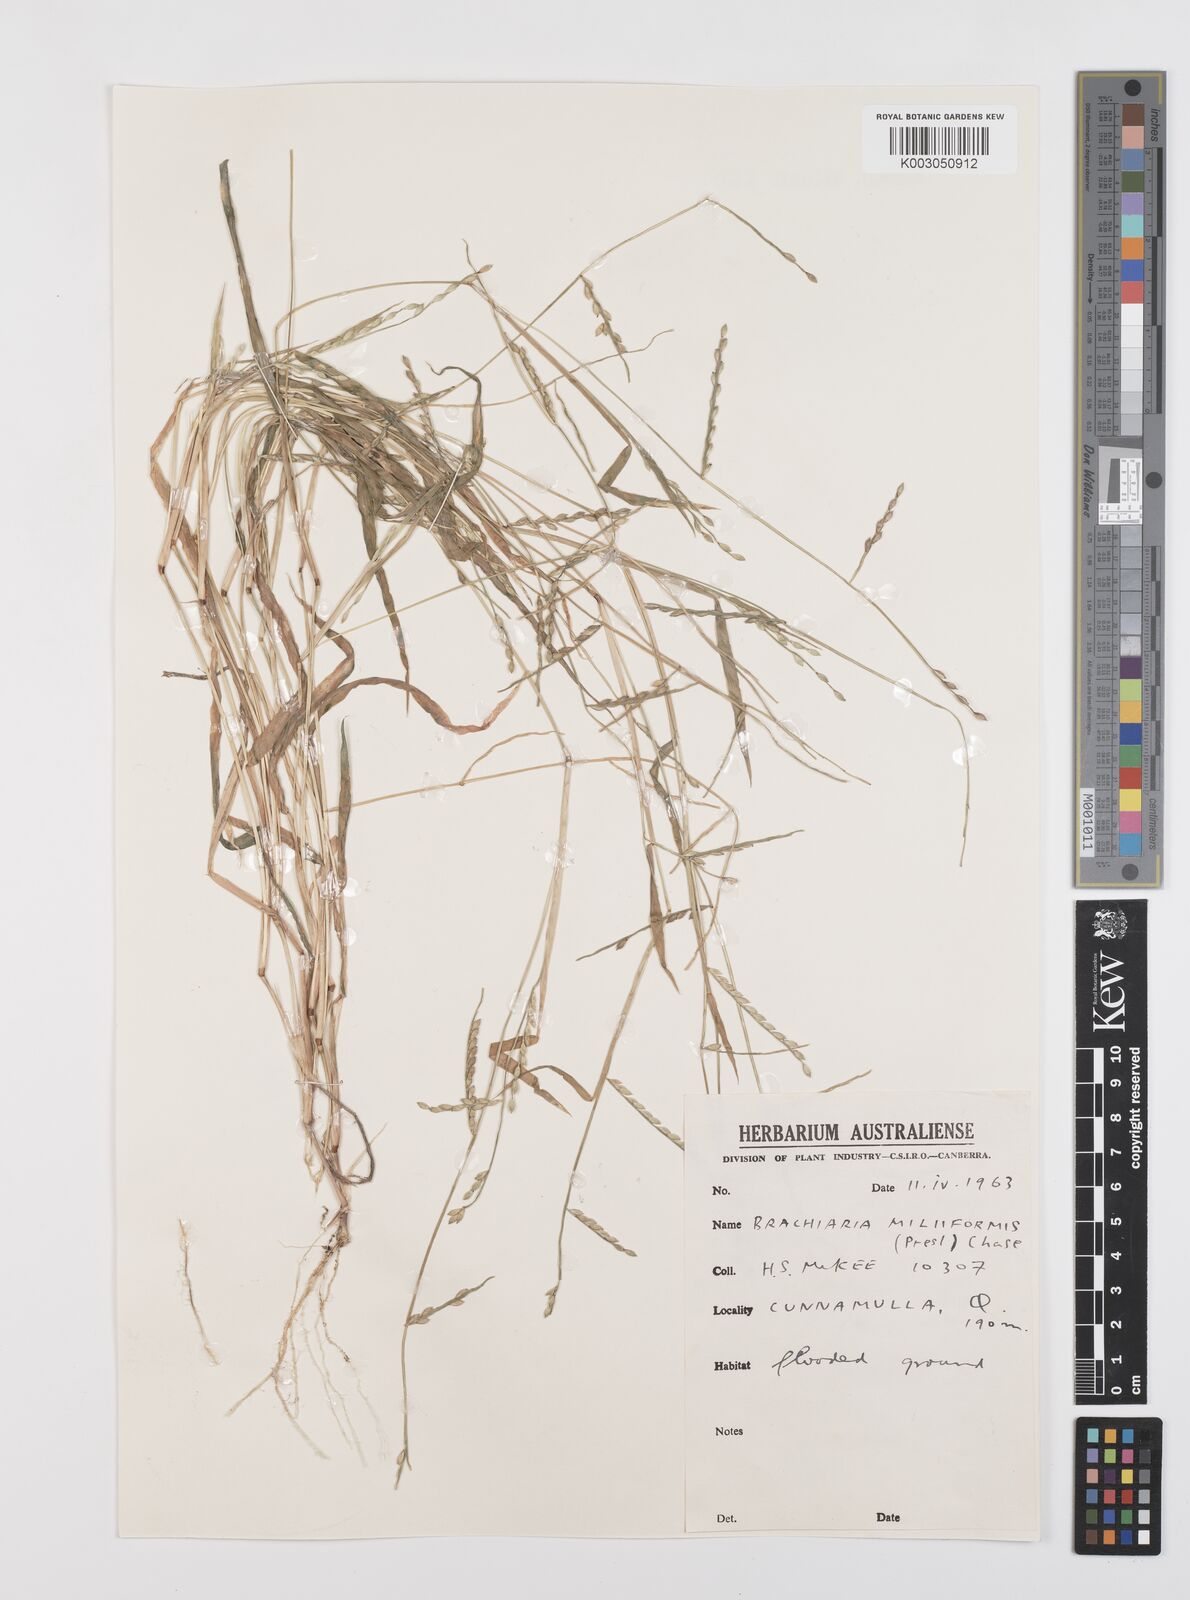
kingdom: Plantae
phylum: Tracheophyta
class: Liliopsida
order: Poales
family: Poaceae
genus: Urochloa
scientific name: Urochloa subquadripara
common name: Armgrass millet
